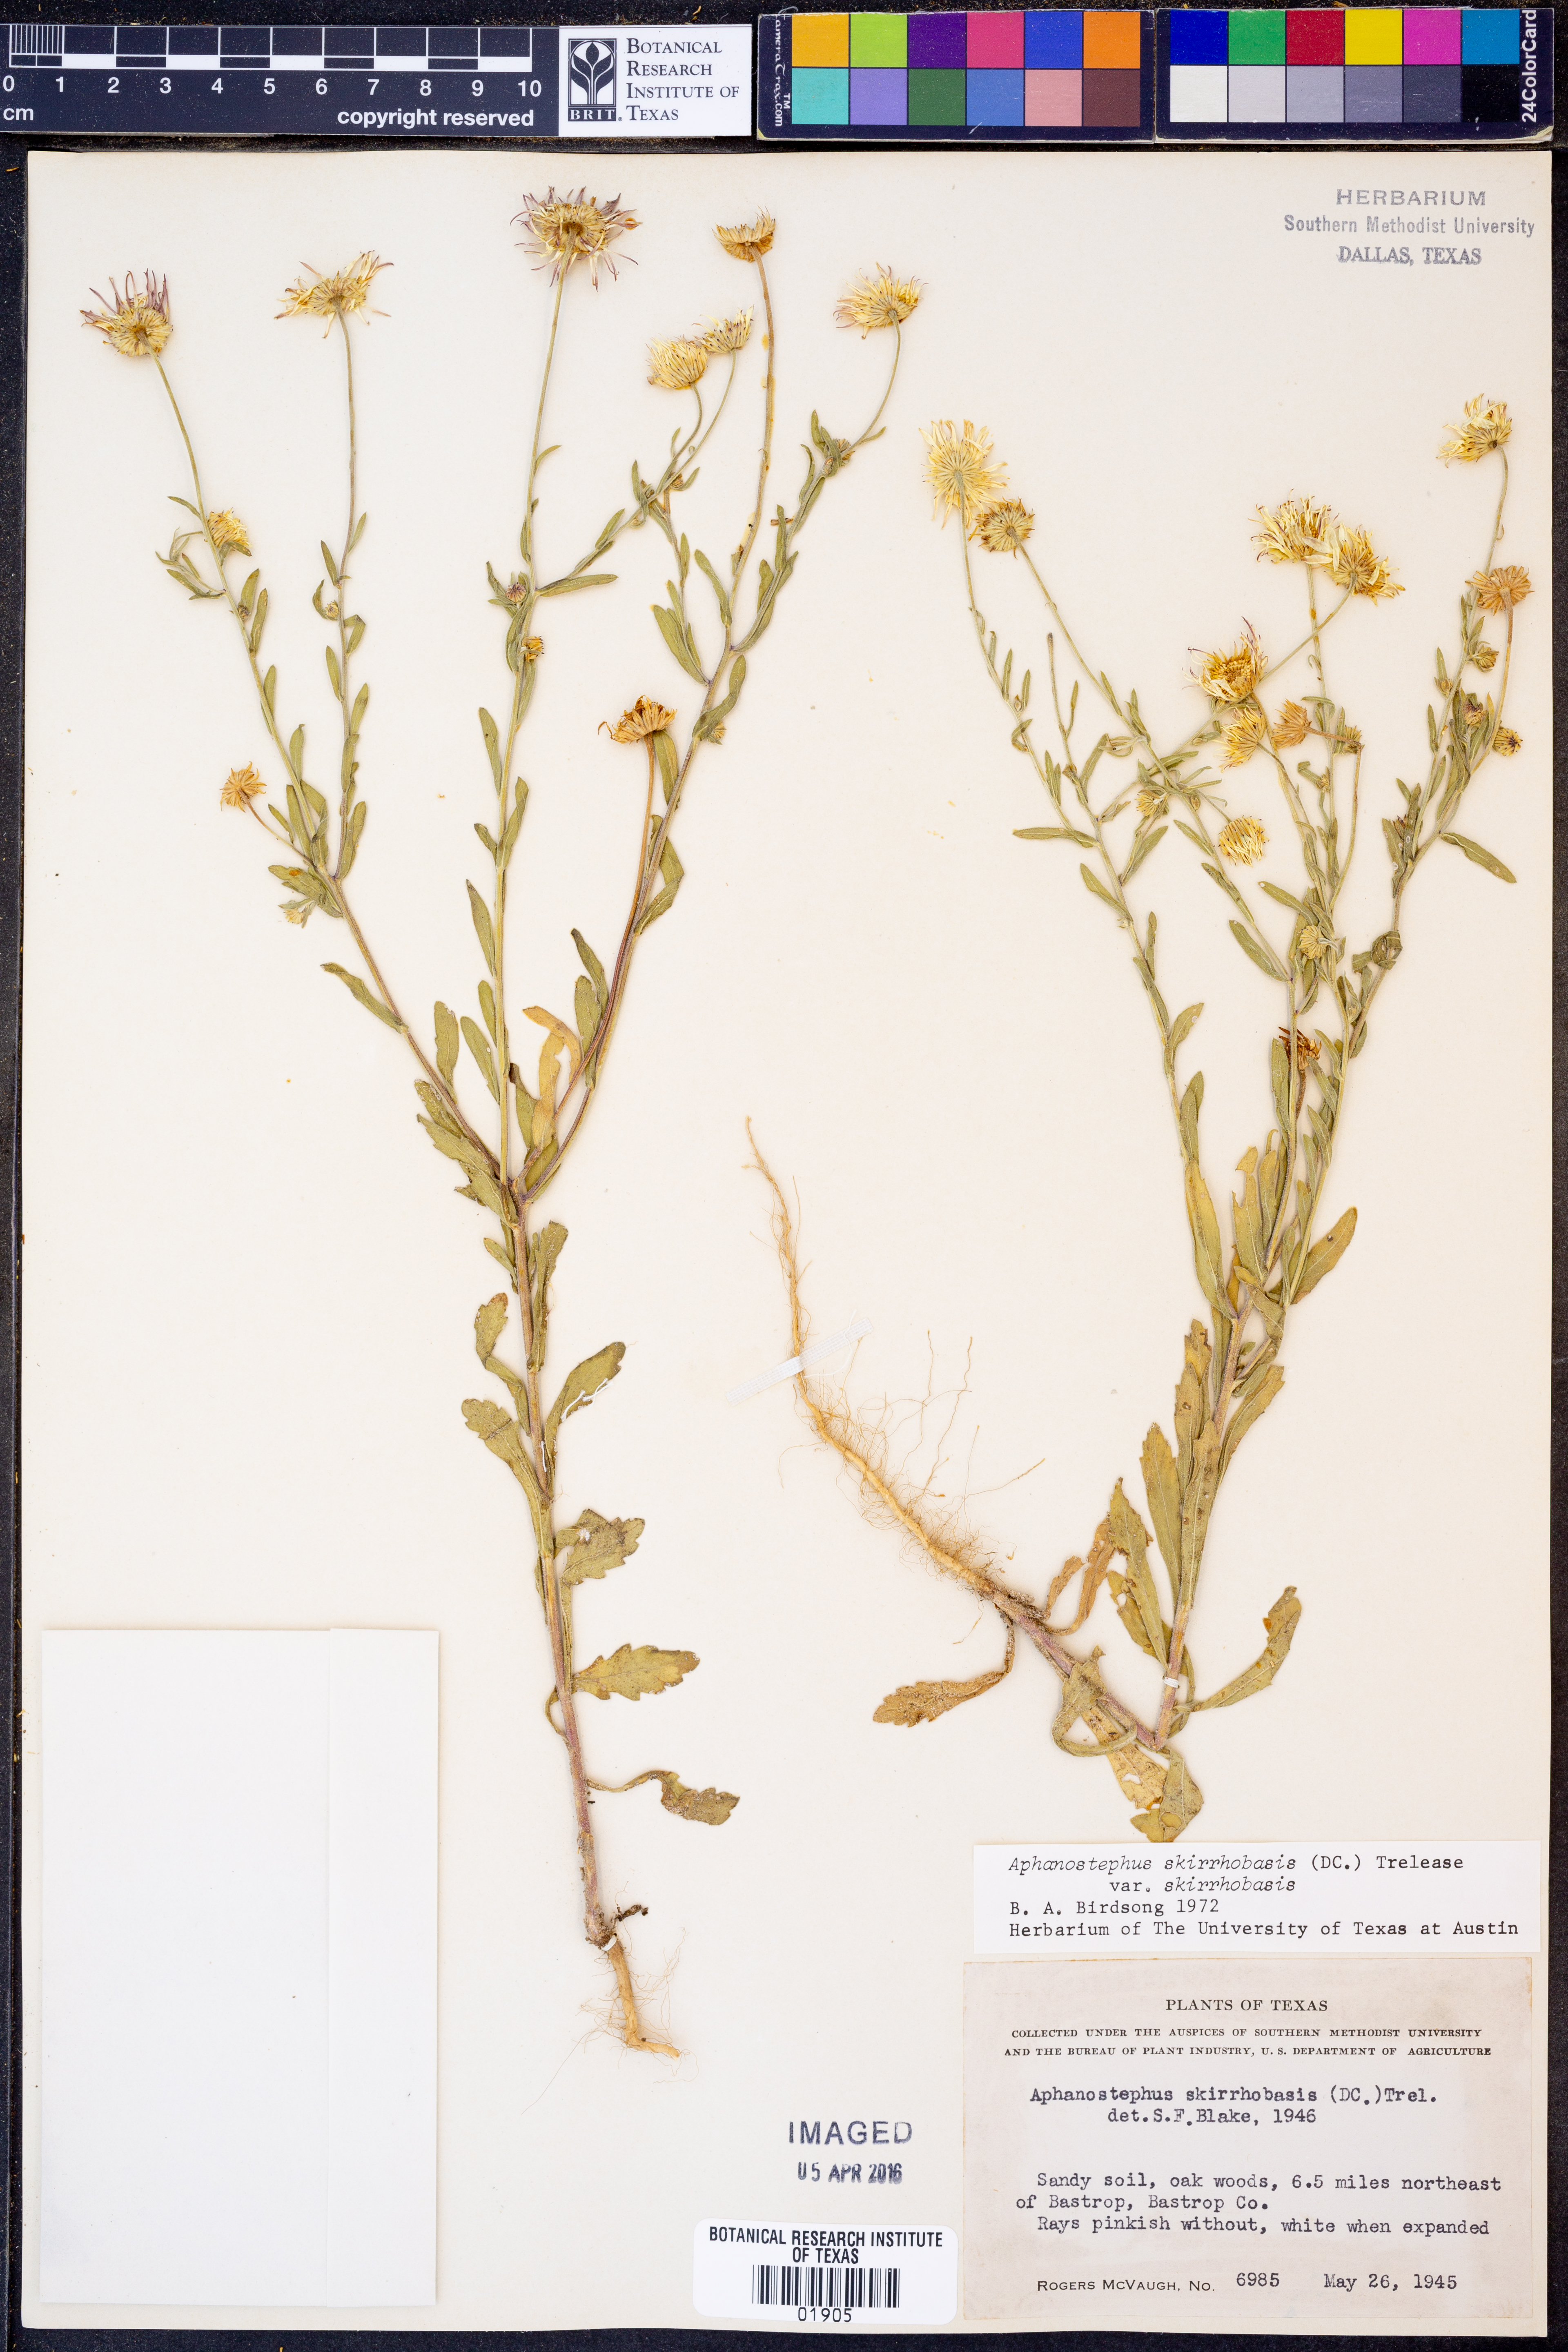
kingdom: Plantae
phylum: Tracheophyta
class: Magnoliopsida
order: Asterales
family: Asteraceae
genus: Aphanostephus
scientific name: Aphanostephus skirrhobasis
